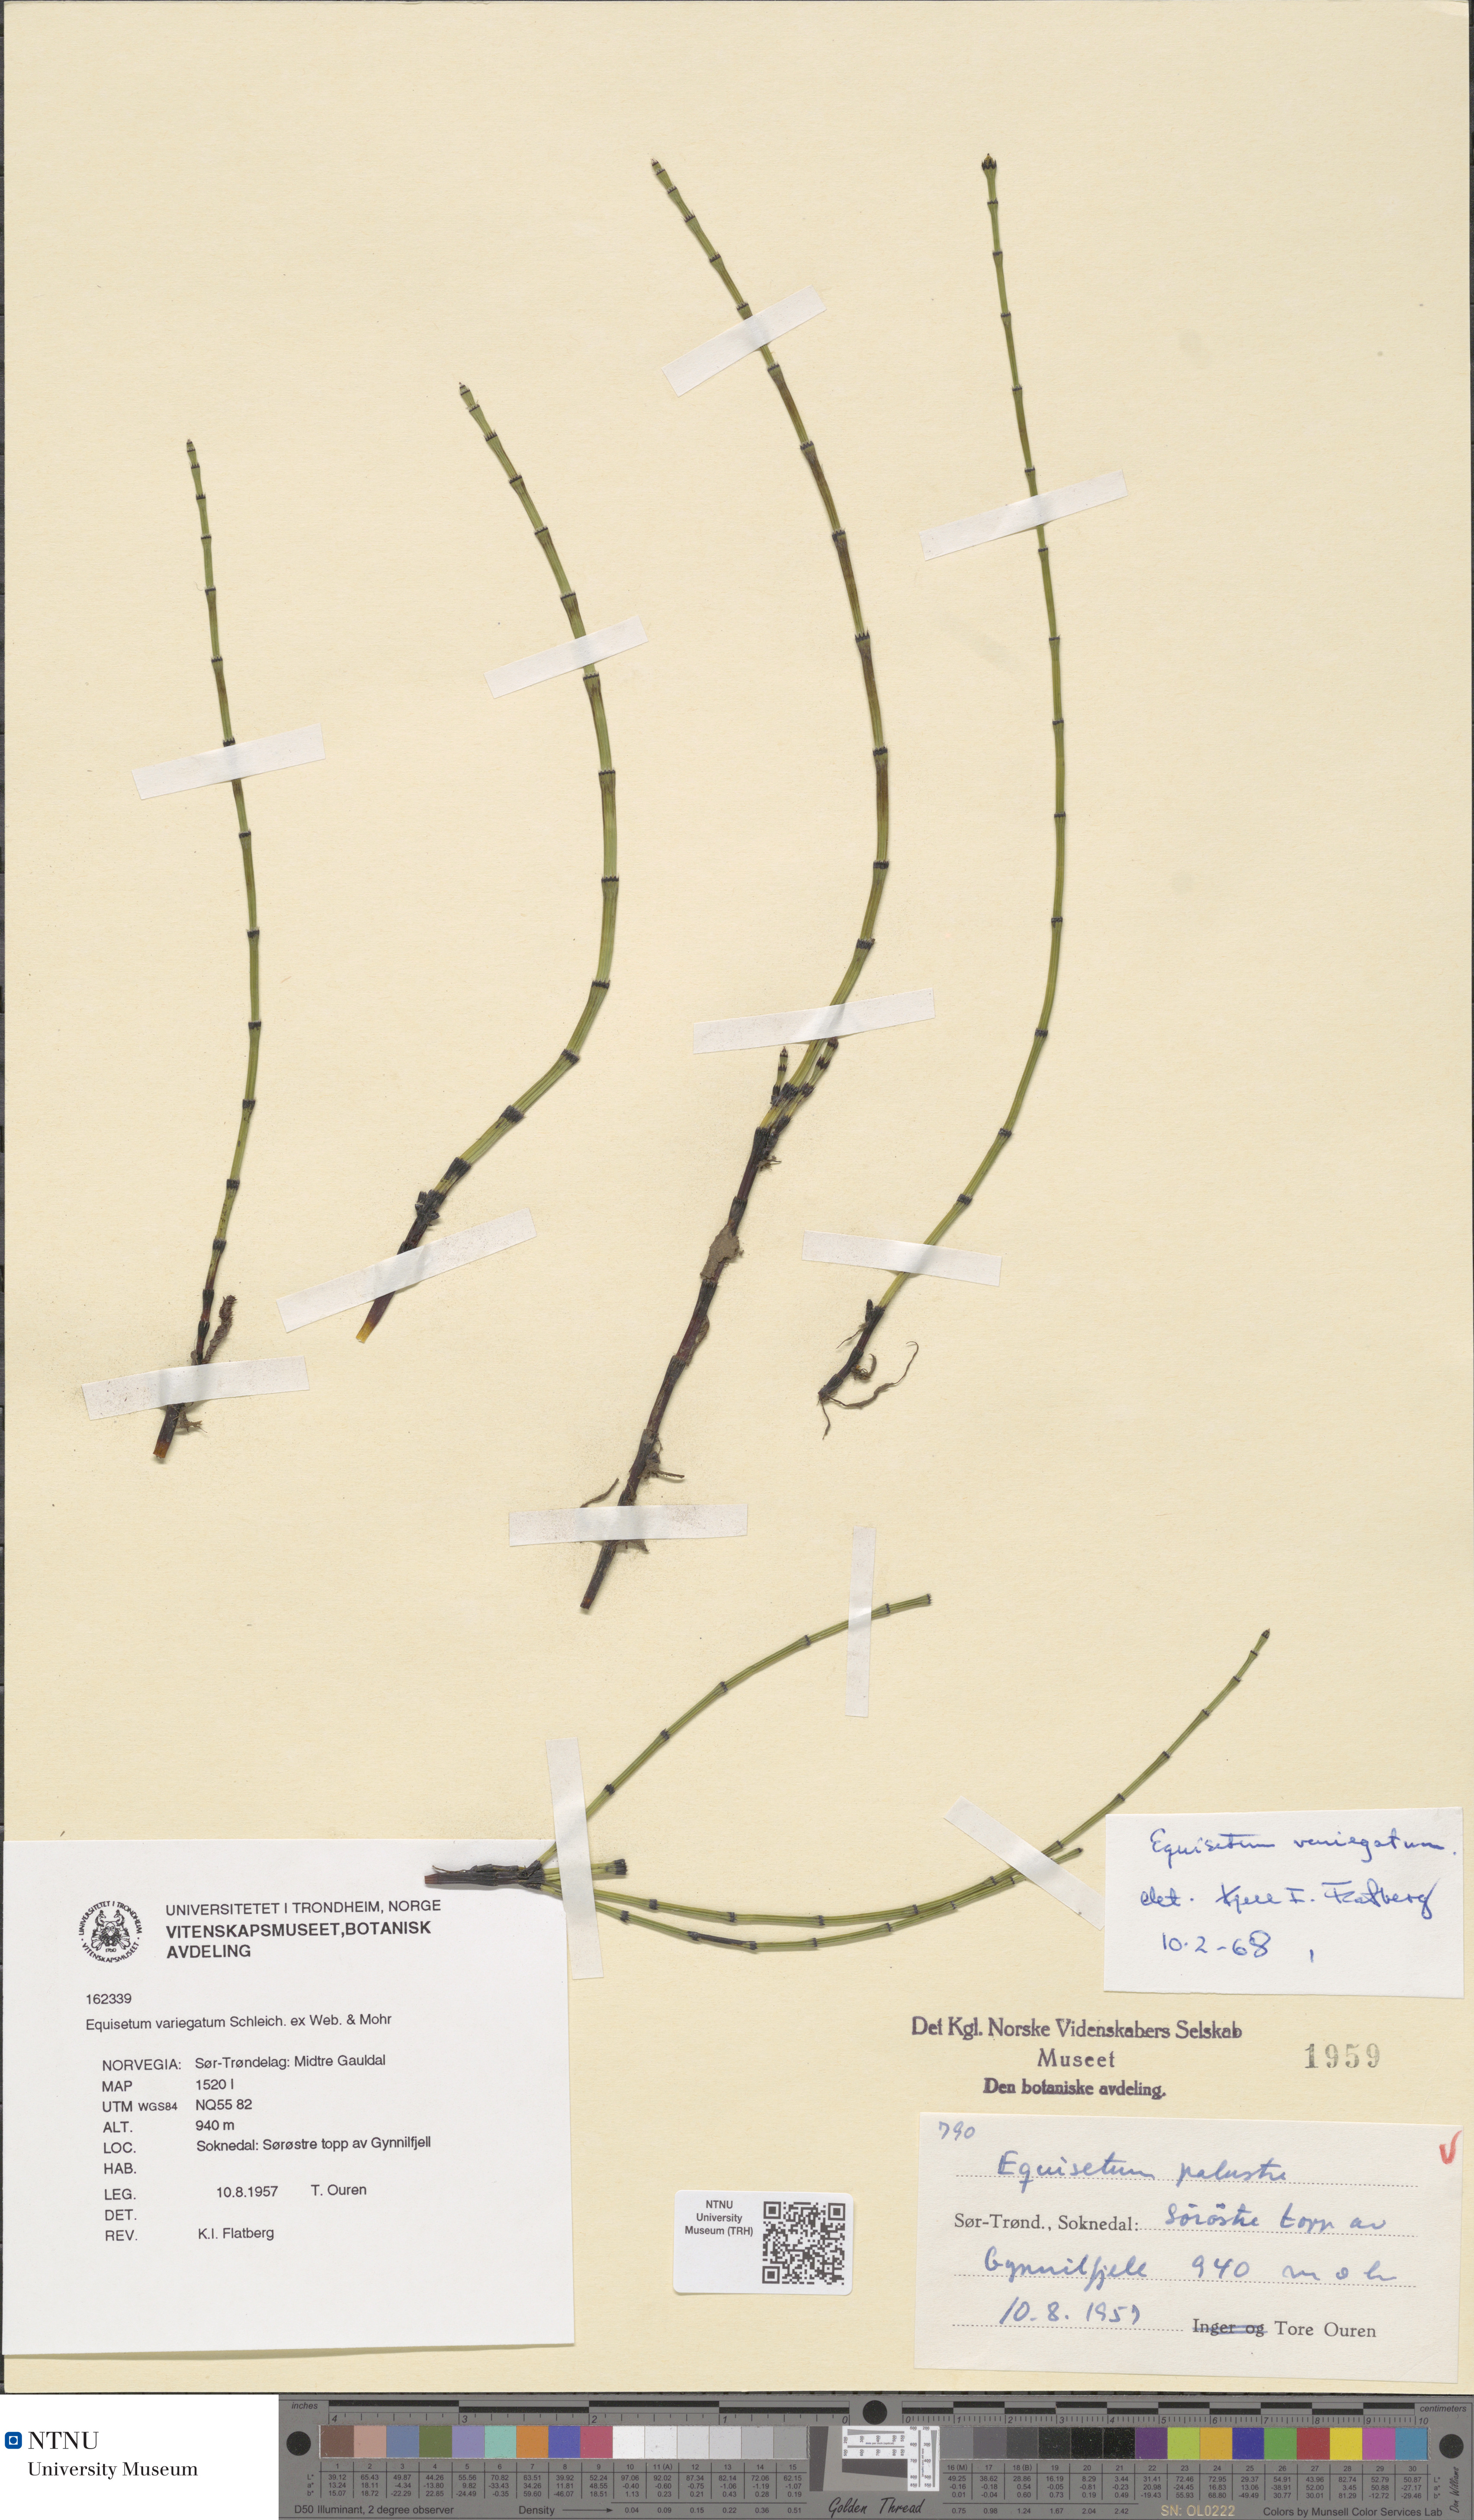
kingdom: Plantae
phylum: Tracheophyta
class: Polypodiopsida
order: Equisetales
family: Equisetaceae
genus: Equisetum
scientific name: Equisetum variegatum
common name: Variegated horsetail
